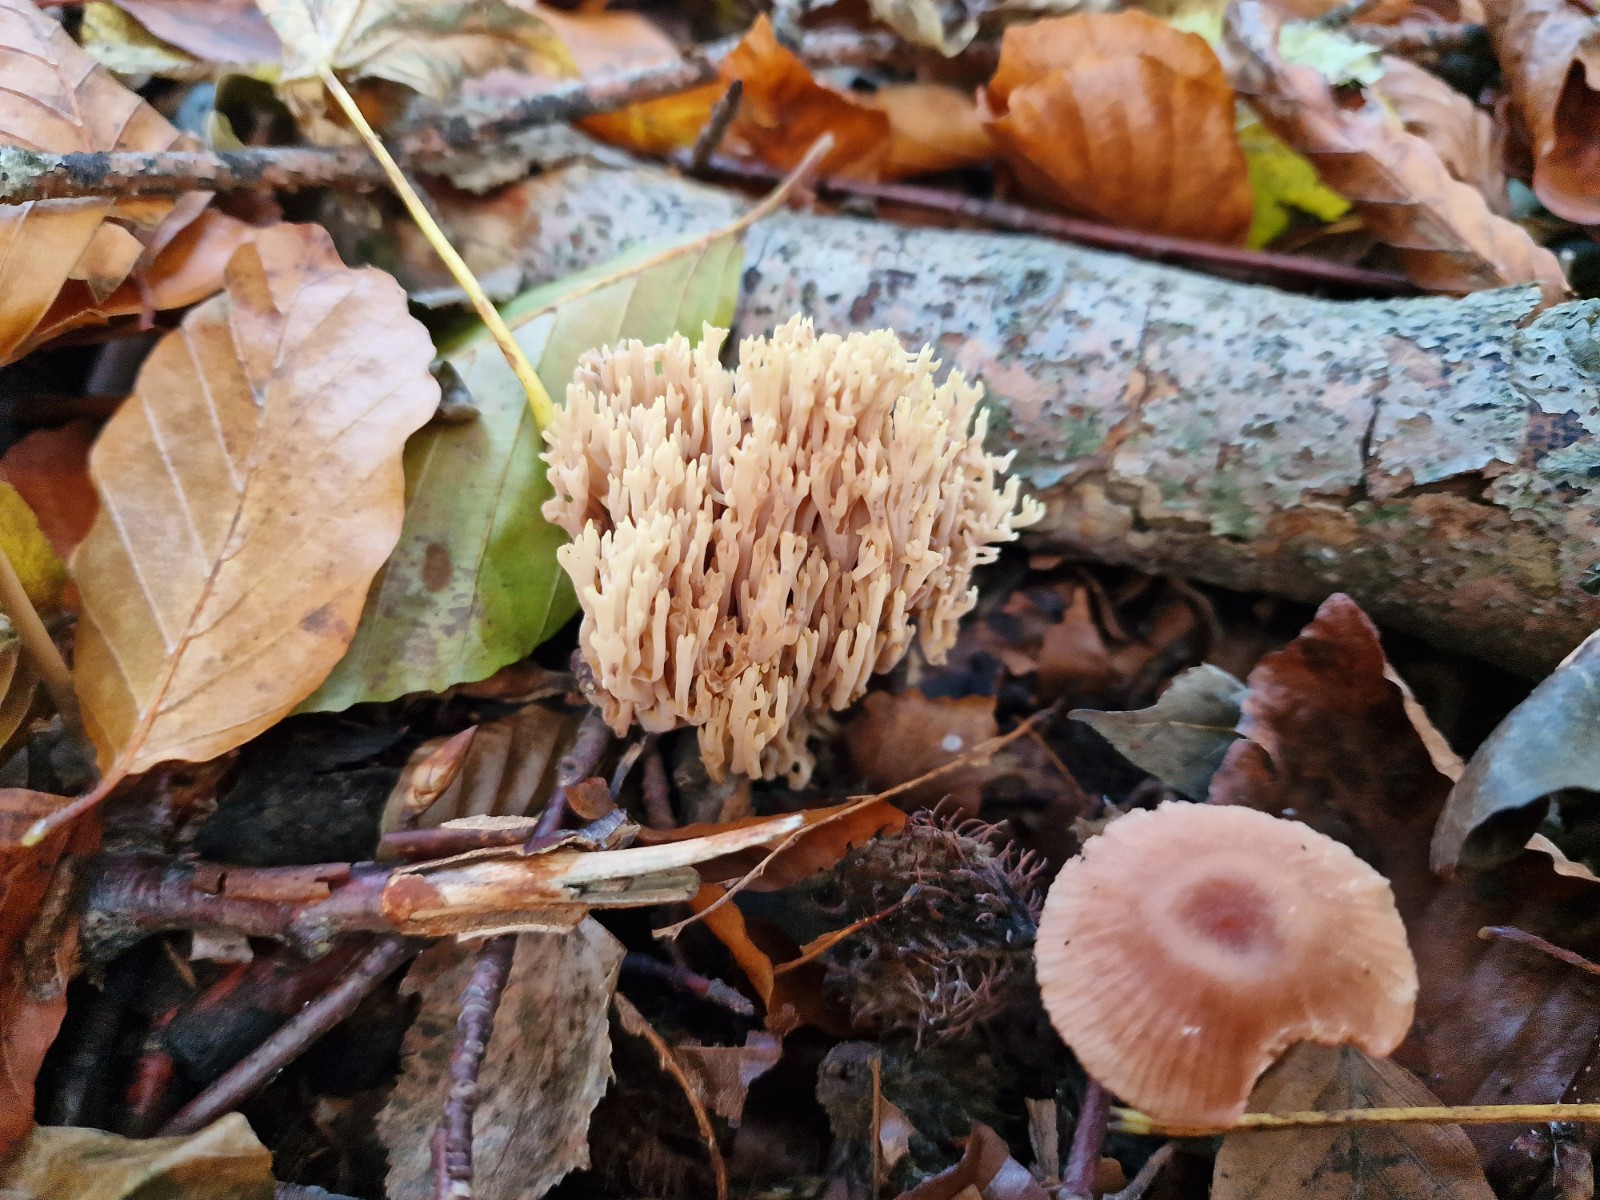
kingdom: Fungi
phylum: Basidiomycota
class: Agaricomycetes
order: Gomphales
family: Gomphaceae
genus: Ramaria
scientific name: Ramaria stricta
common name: rank koralsvamp
